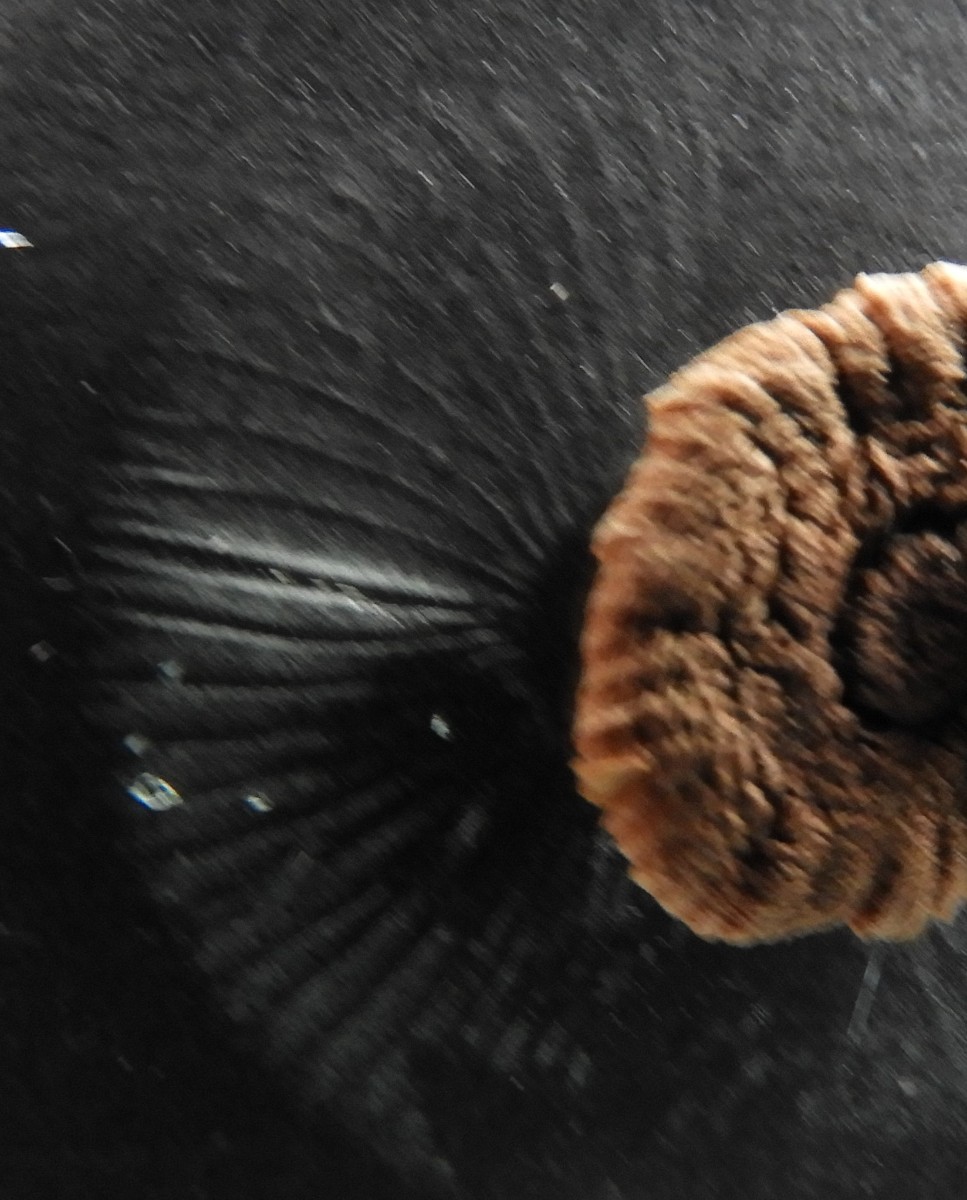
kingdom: Fungi
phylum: Basidiomycota
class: Agaricomycetes
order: Agaricales
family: Amanitaceae
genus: Amanita
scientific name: Amanita
